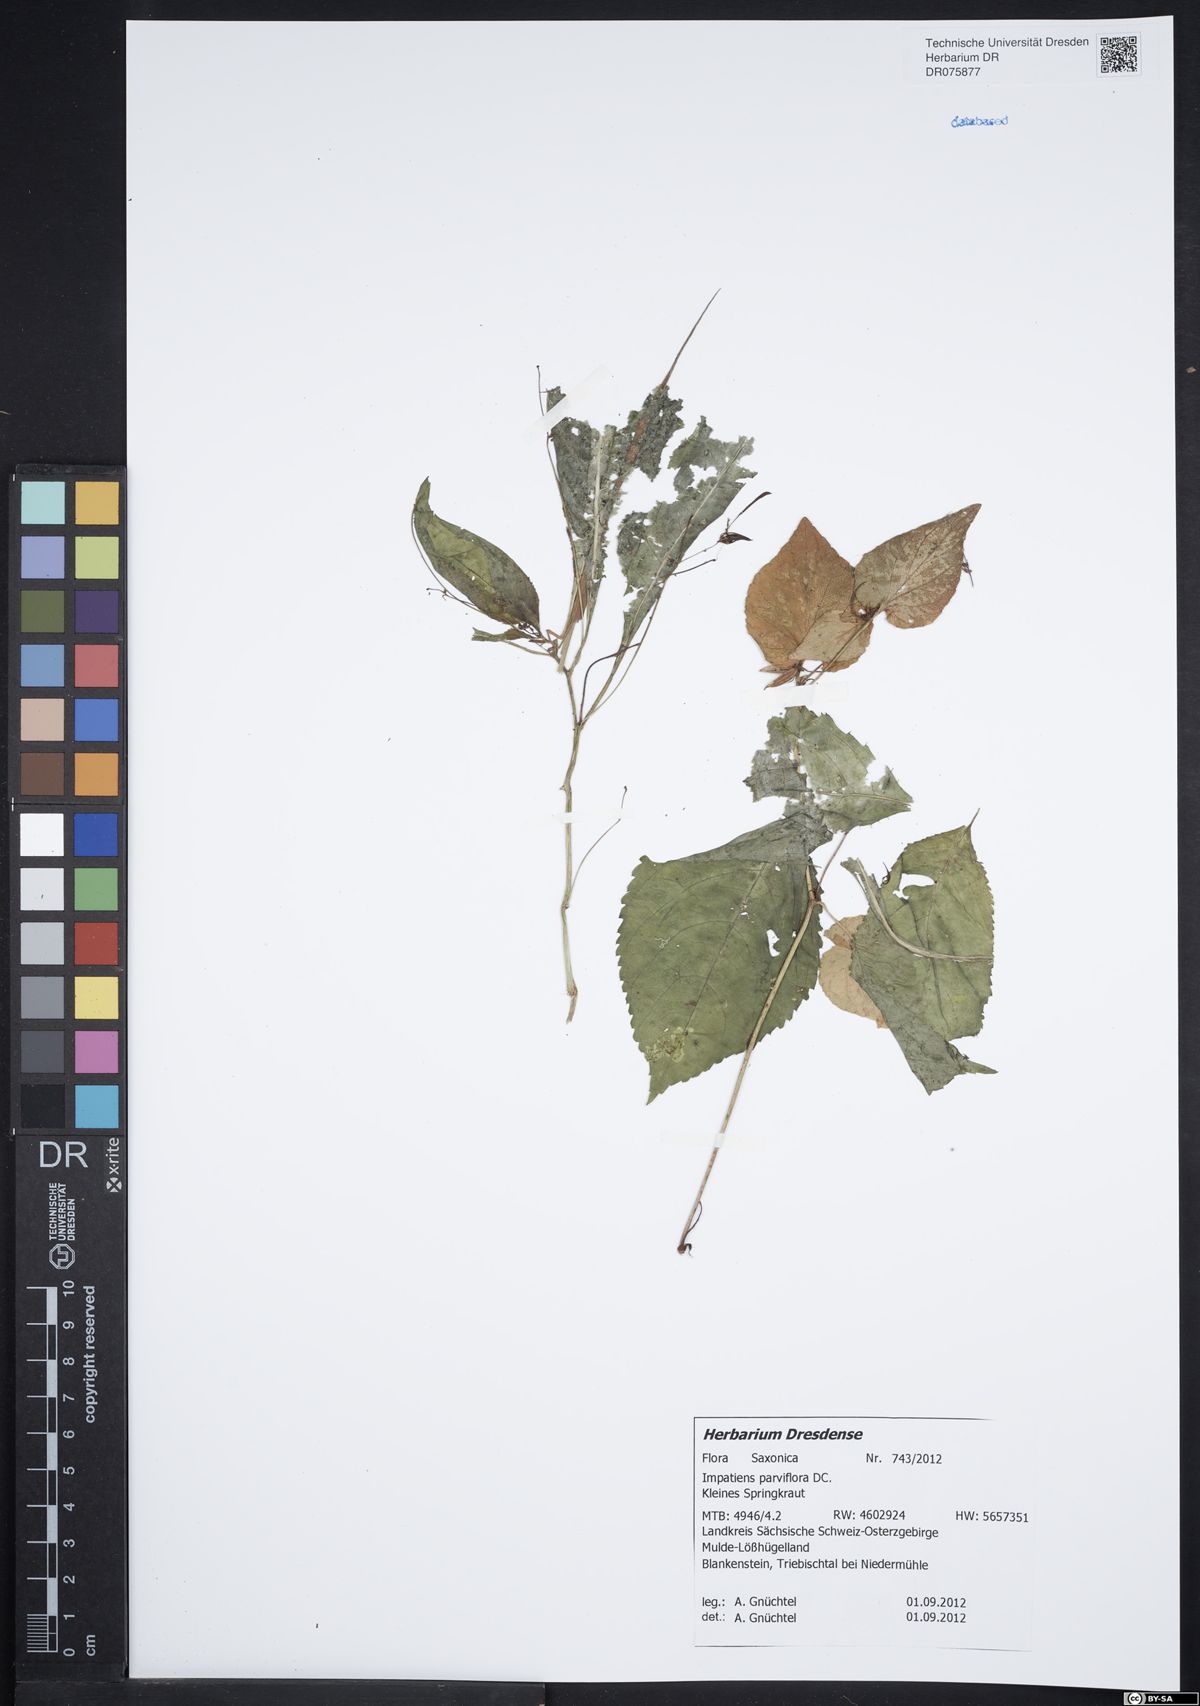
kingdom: Plantae
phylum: Tracheophyta
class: Magnoliopsida
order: Ericales
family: Balsaminaceae
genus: Impatiens
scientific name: Impatiens parviflora
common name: Small balsam
